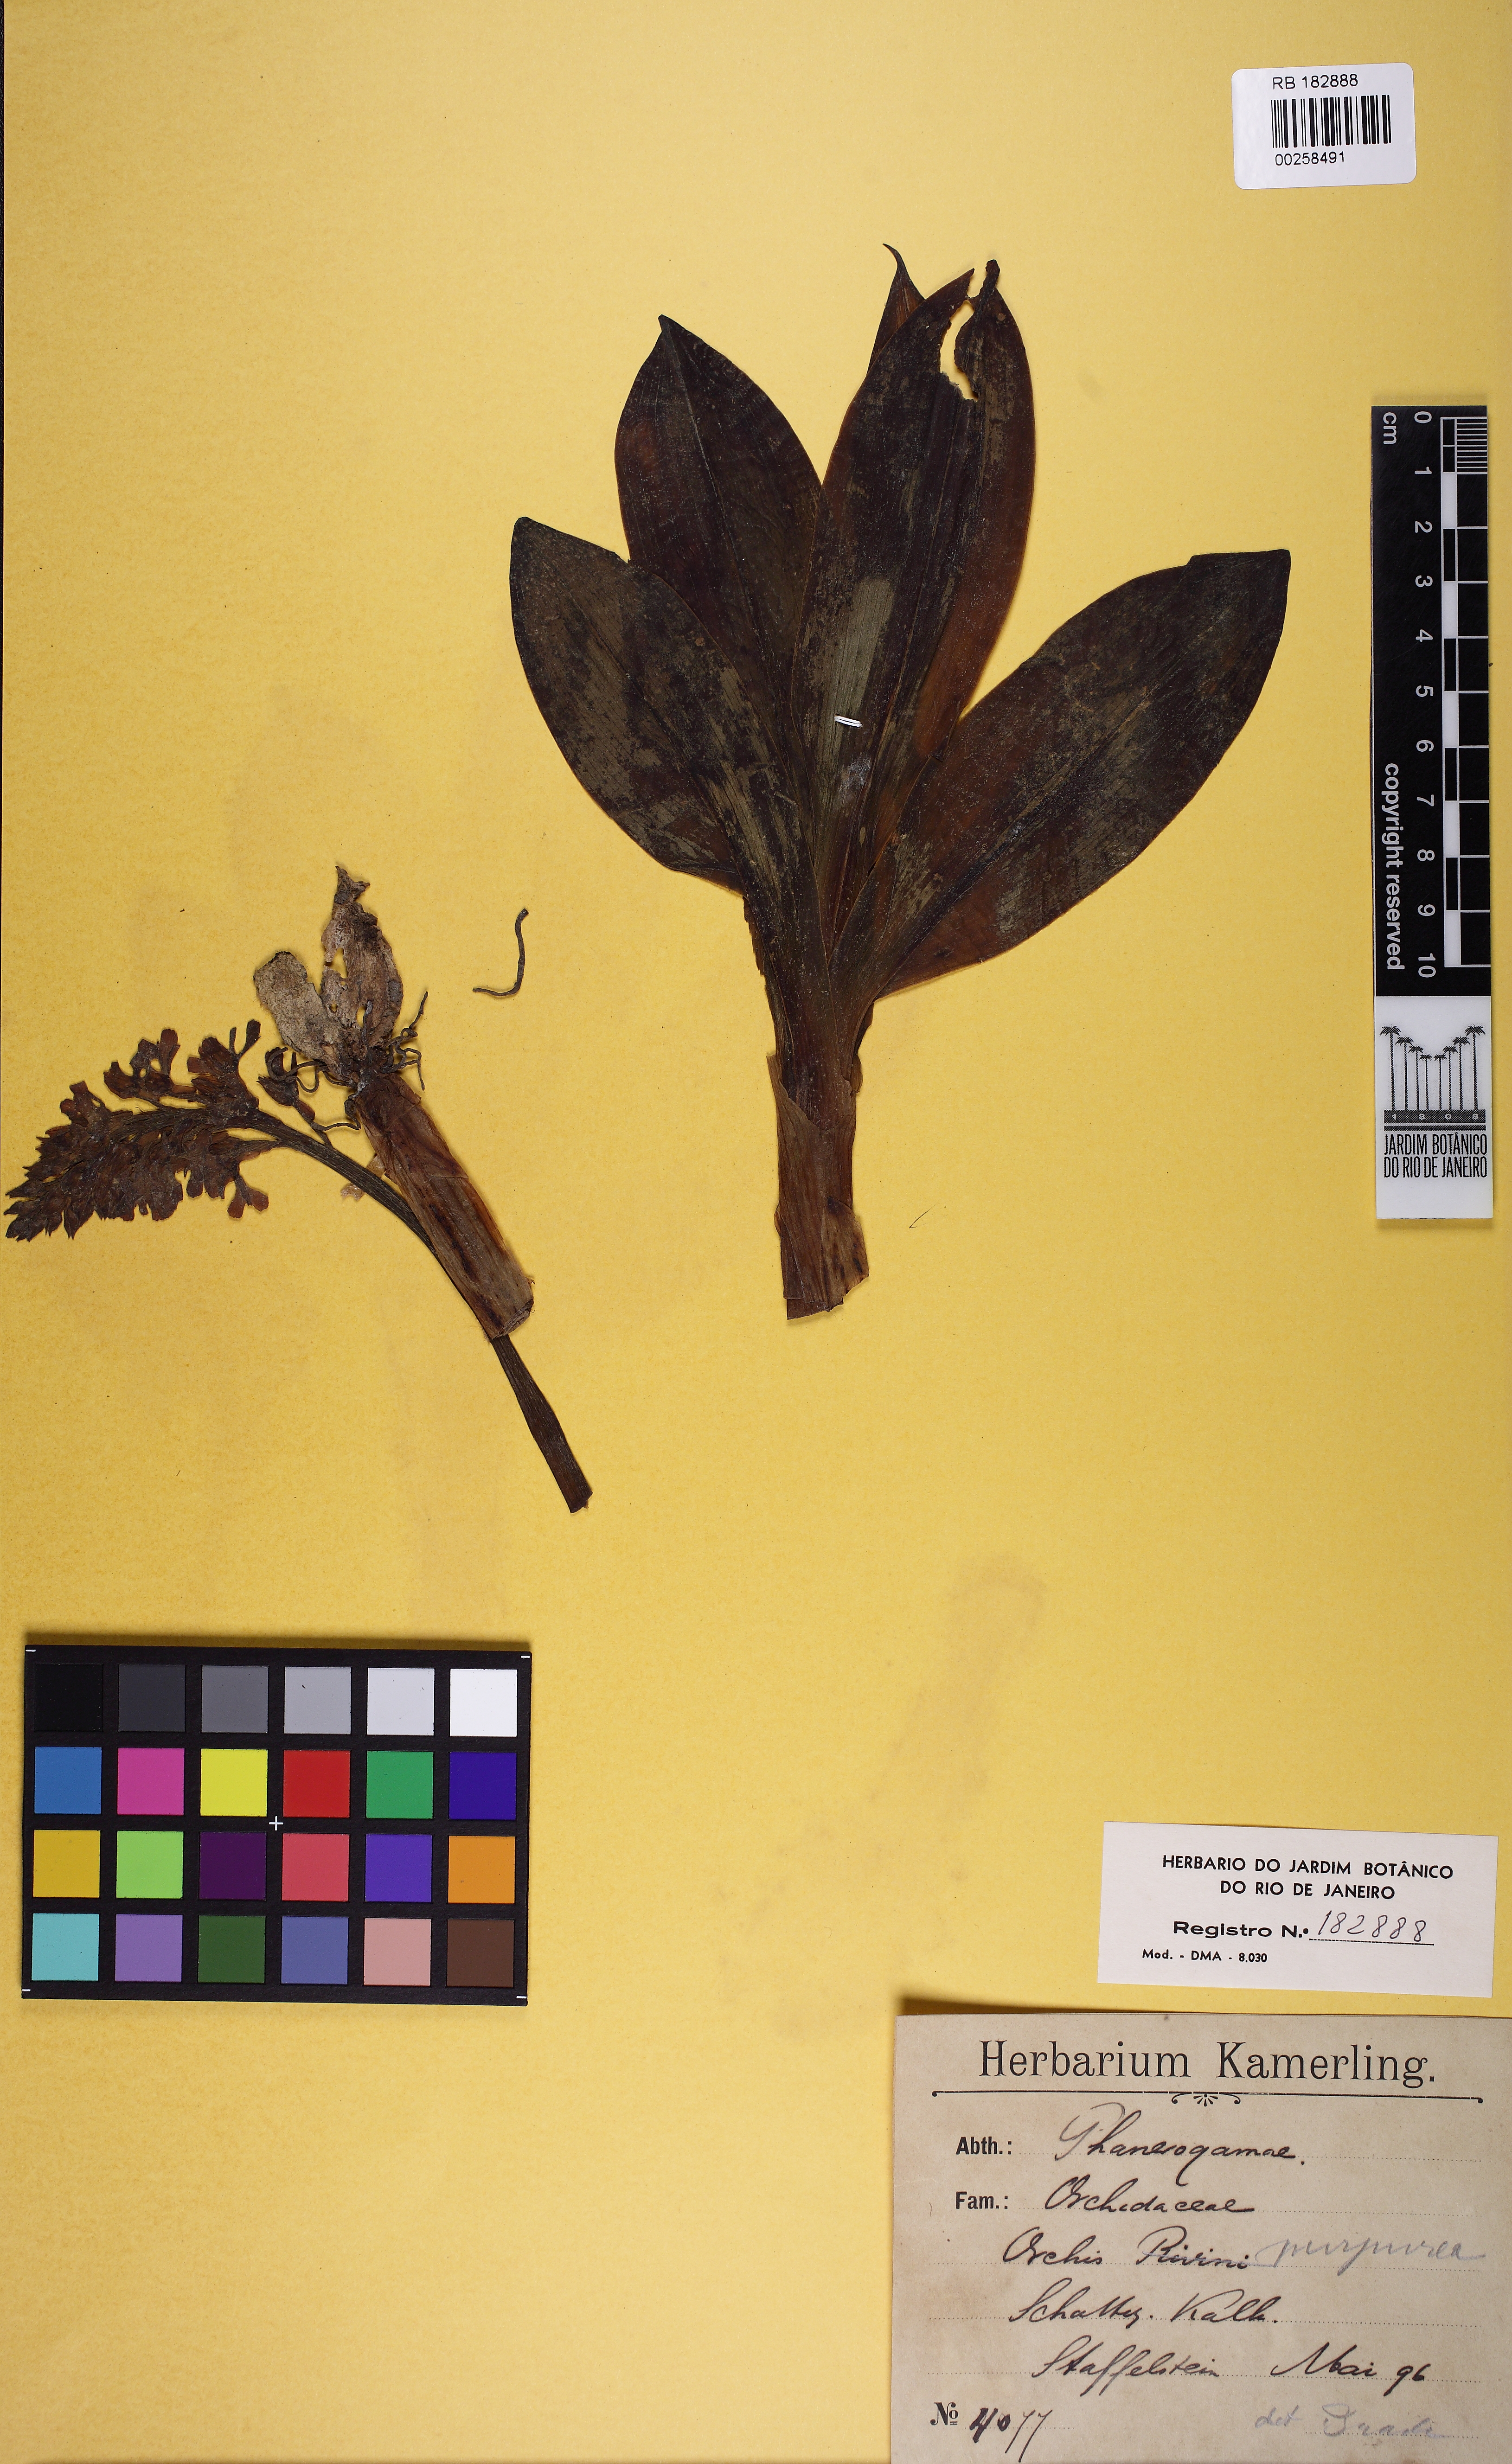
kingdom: Plantae
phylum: Tracheophyta
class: Liliopsida
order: Asparagales
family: Orchidaceae
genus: Orchis
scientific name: Orchis purpurea
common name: Lady orchid
